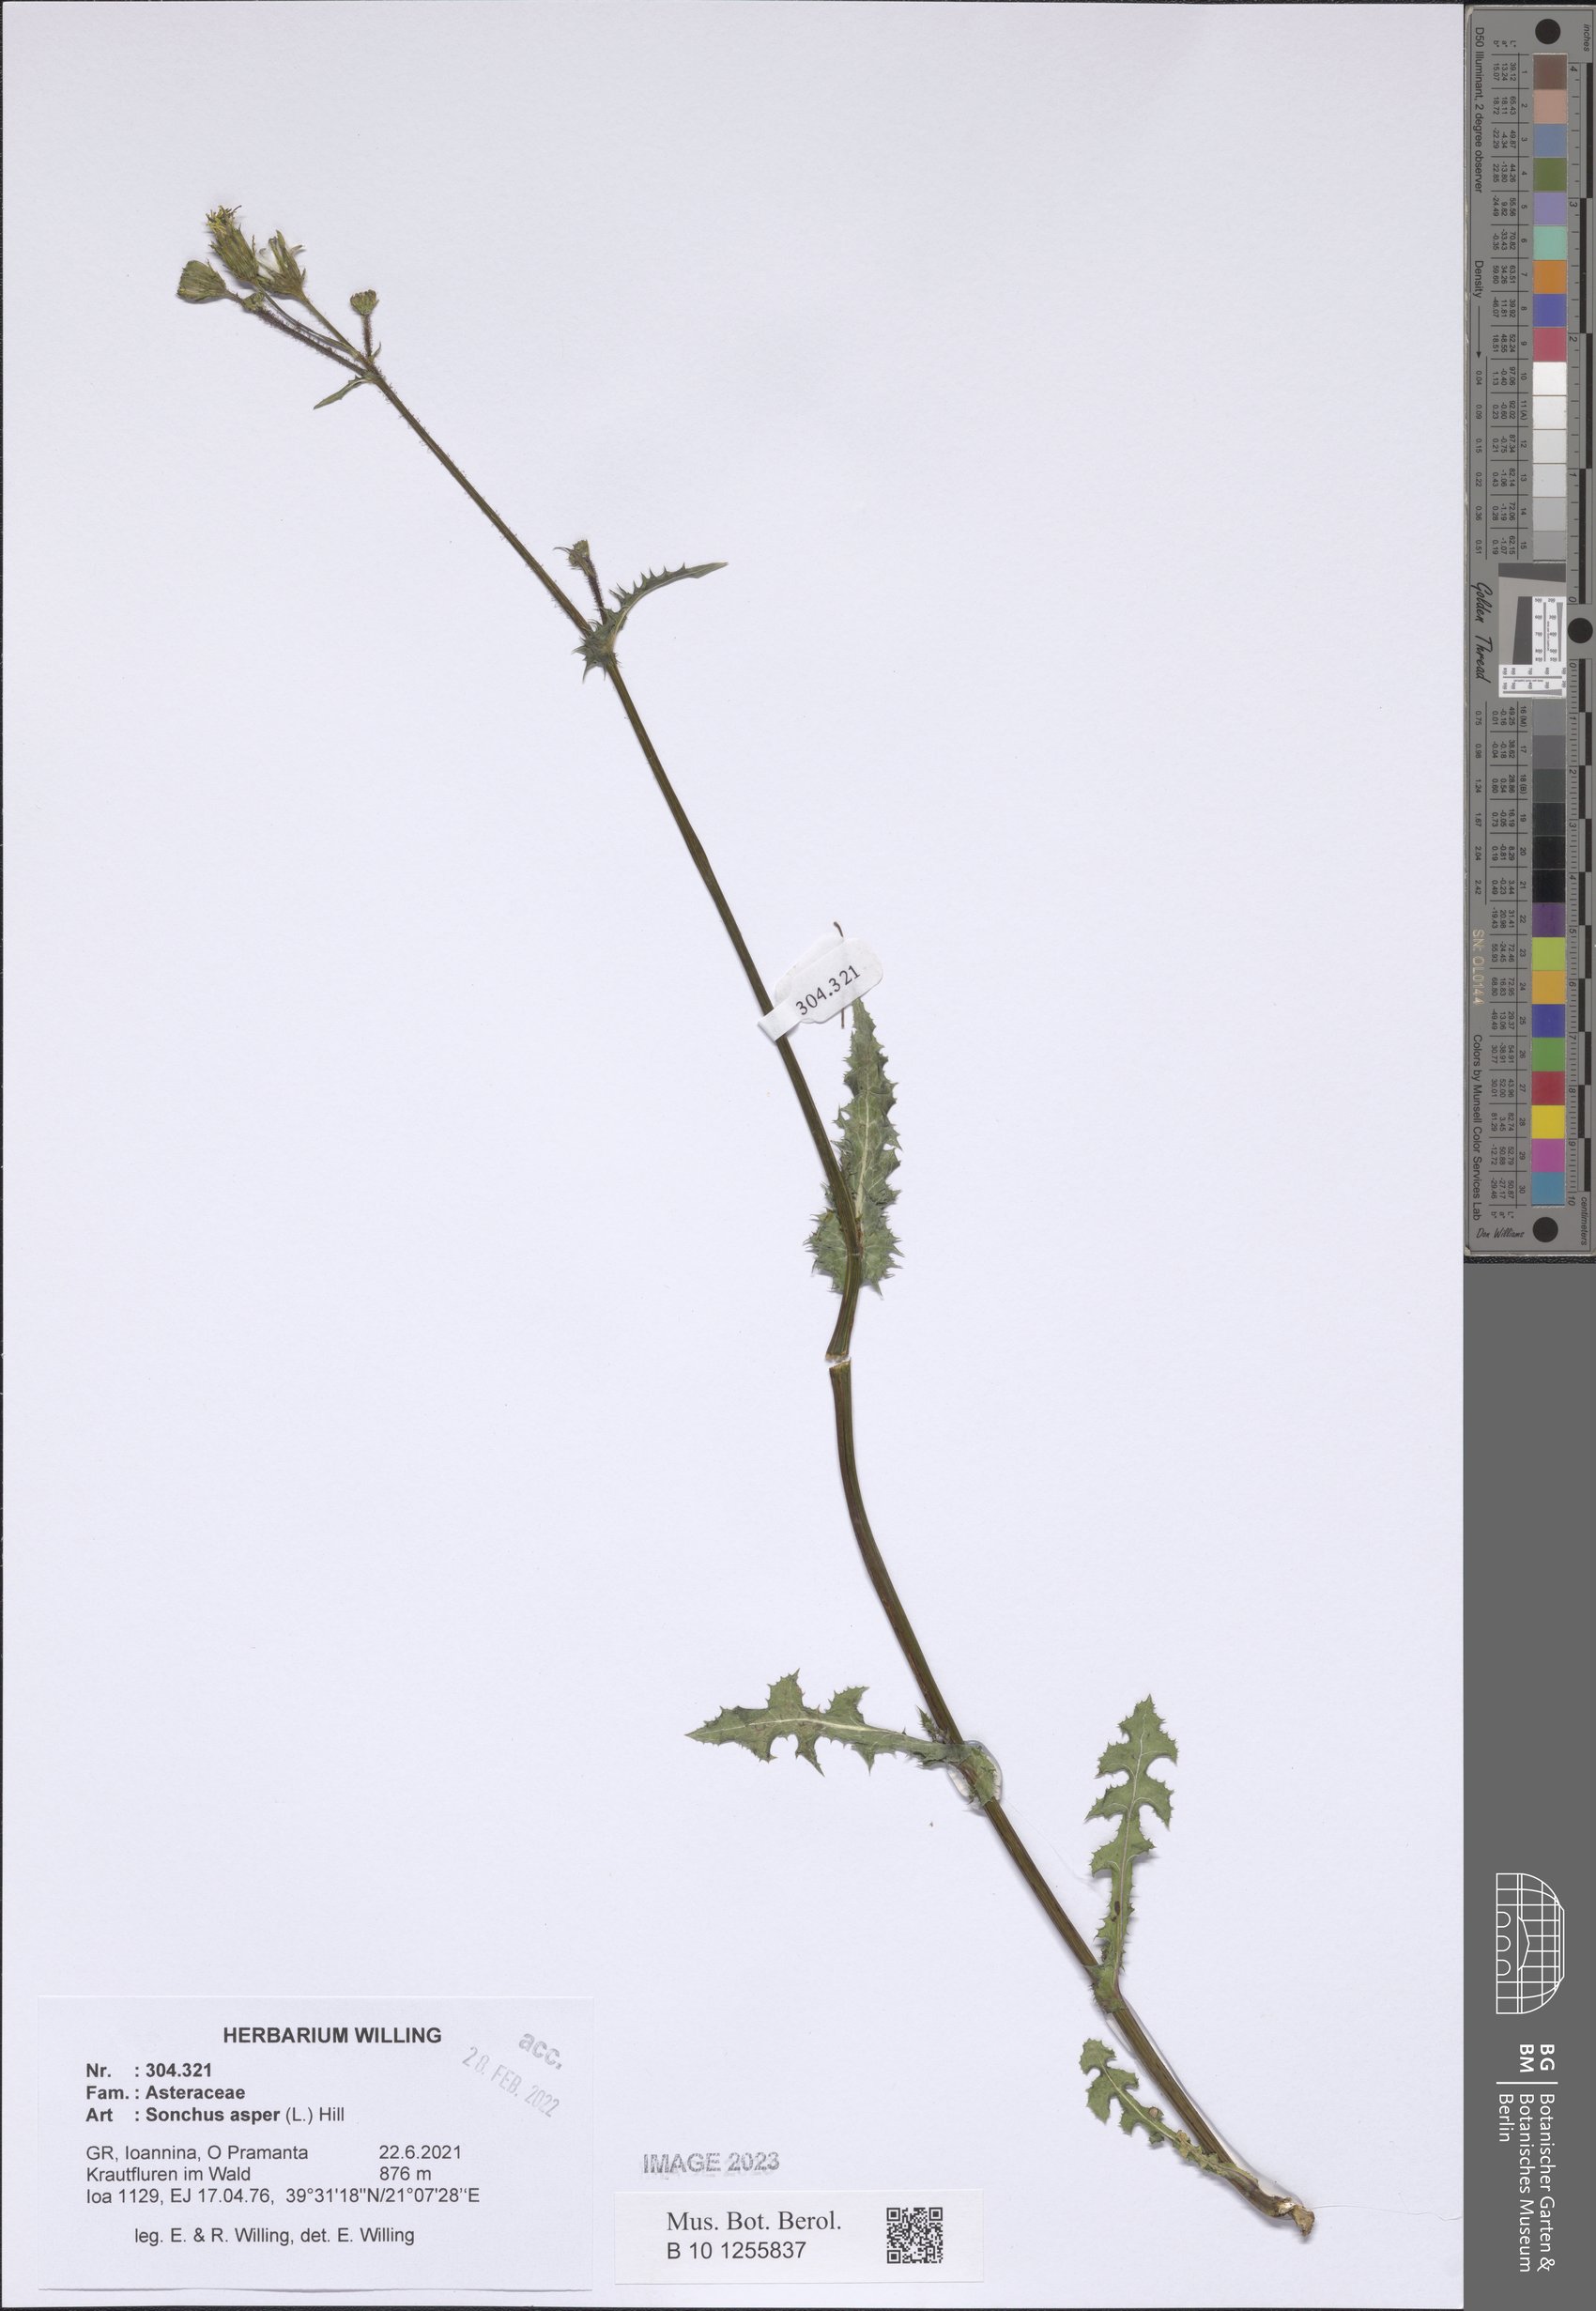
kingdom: Plantae
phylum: Tracheophyta
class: Magnoliopsida
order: Asterales
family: Asteraceae
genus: Sonchus
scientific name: Sonchus asper
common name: Prickly sow-thistle
